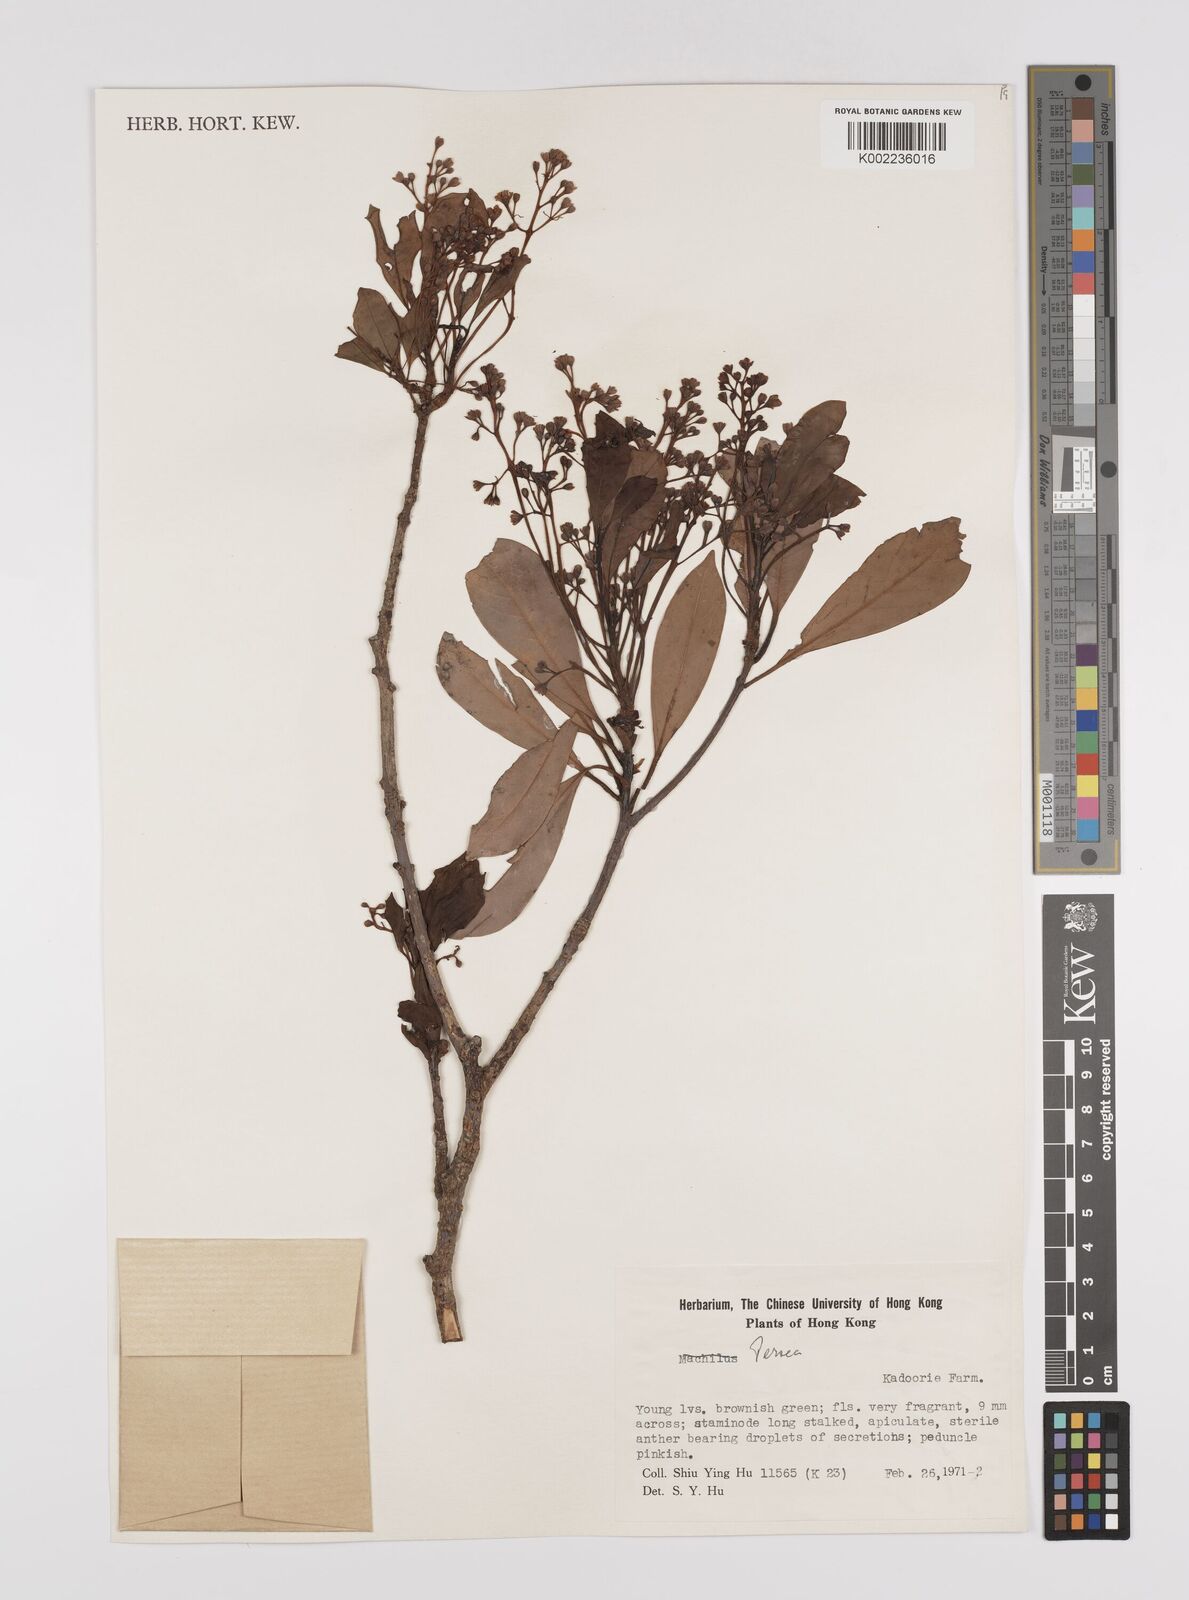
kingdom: Plantae
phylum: Tracheophyta
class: Magnoliopsida
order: Laurales
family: Lauraceae
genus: Persea
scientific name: Persea
